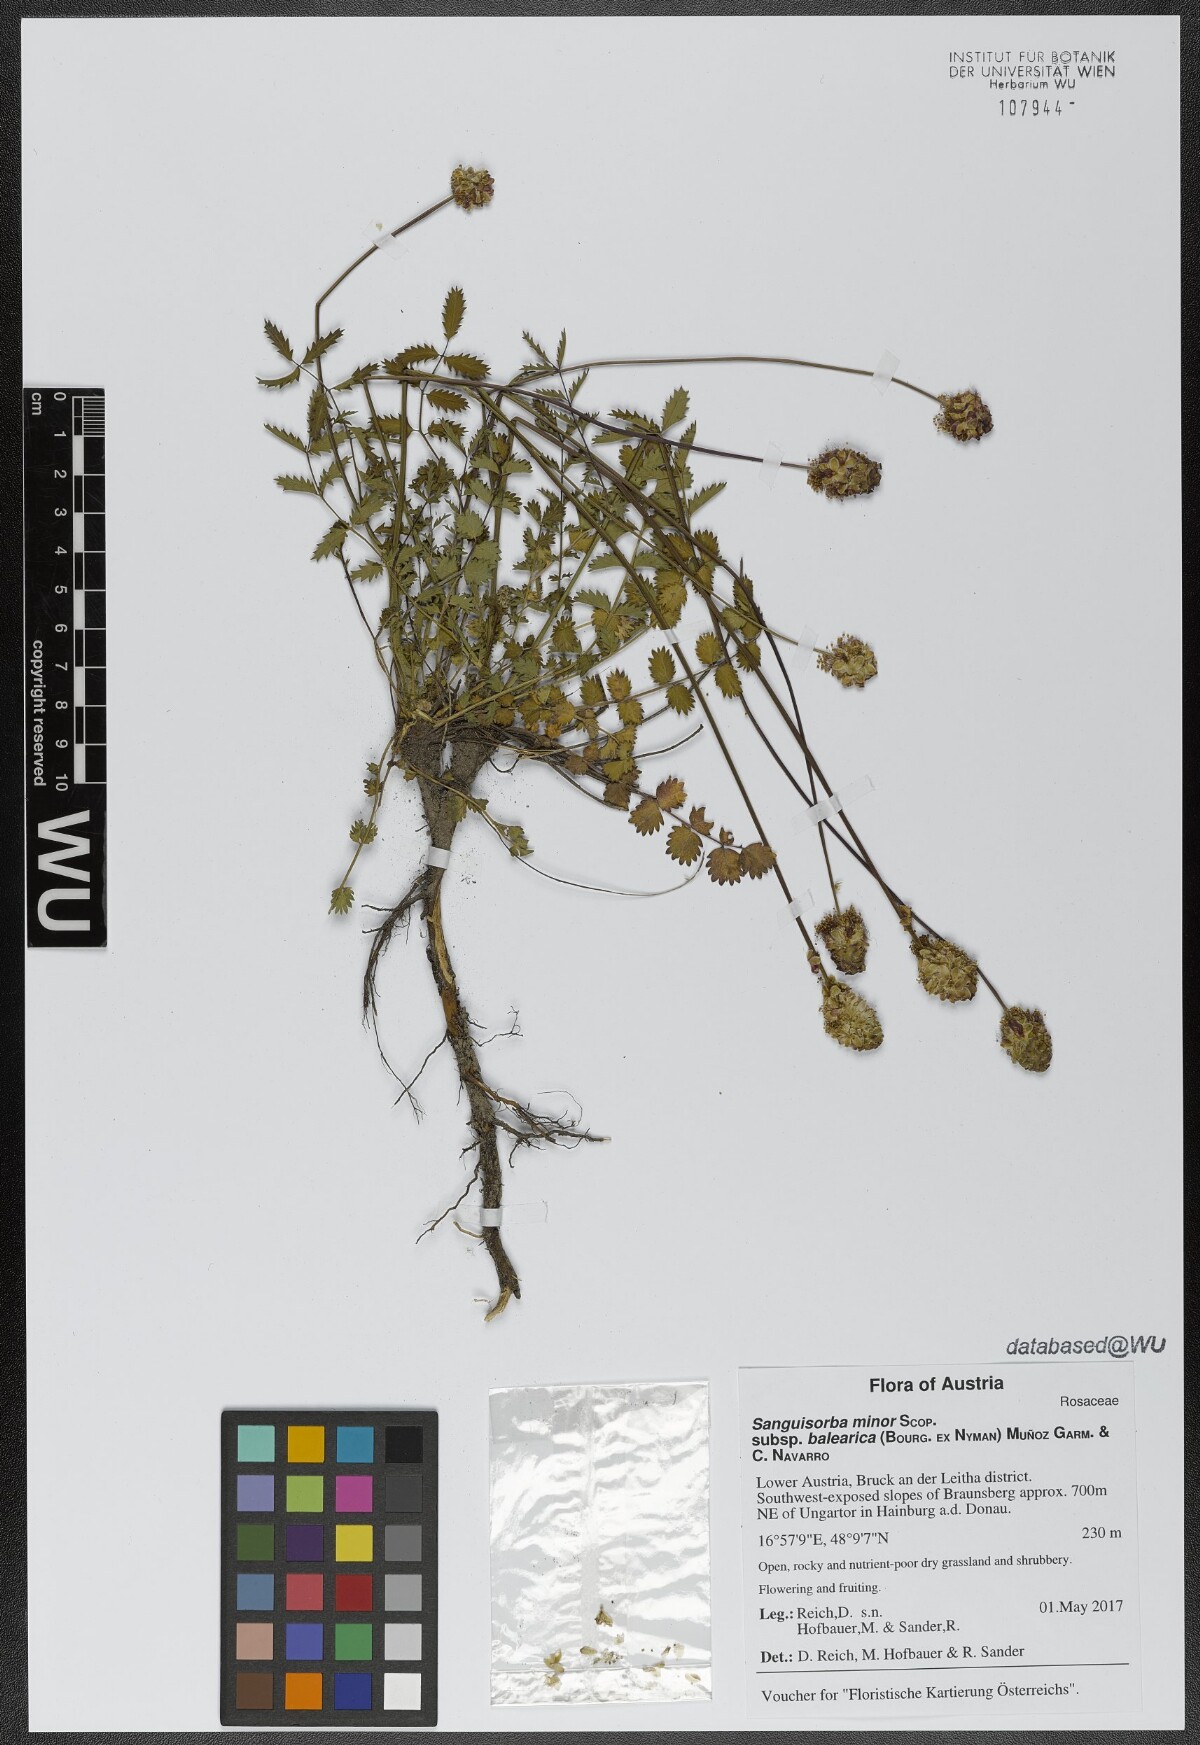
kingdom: Plantae
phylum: Tracheophyta
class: Magnoliopsida
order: Rosales
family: Rosaceae
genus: Poterium
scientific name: Poterium sanguisorba
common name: Salad burnet
